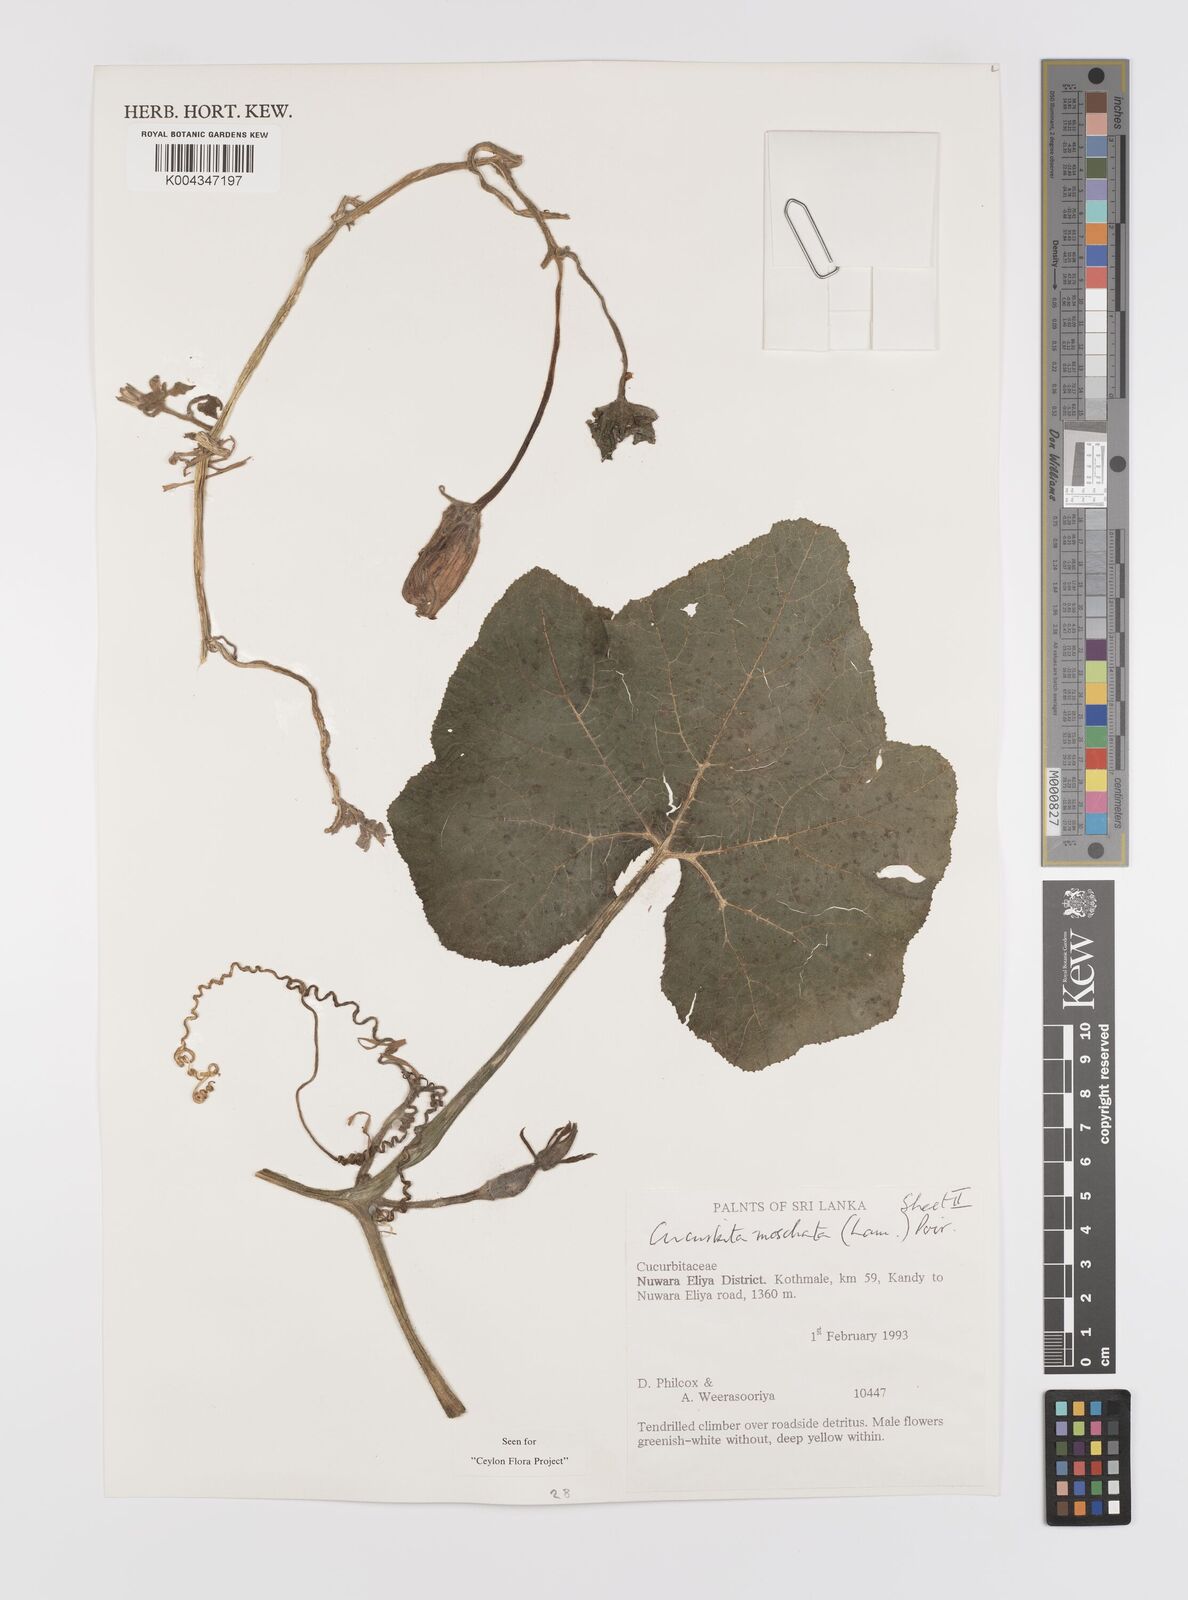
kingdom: Plantae
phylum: Tracheophyta
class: Magnoliopsida
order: Cucurbitales
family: Cucurbitaceae
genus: Cucurbita
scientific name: Cucurbita moschata
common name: Squash / pumpkin
